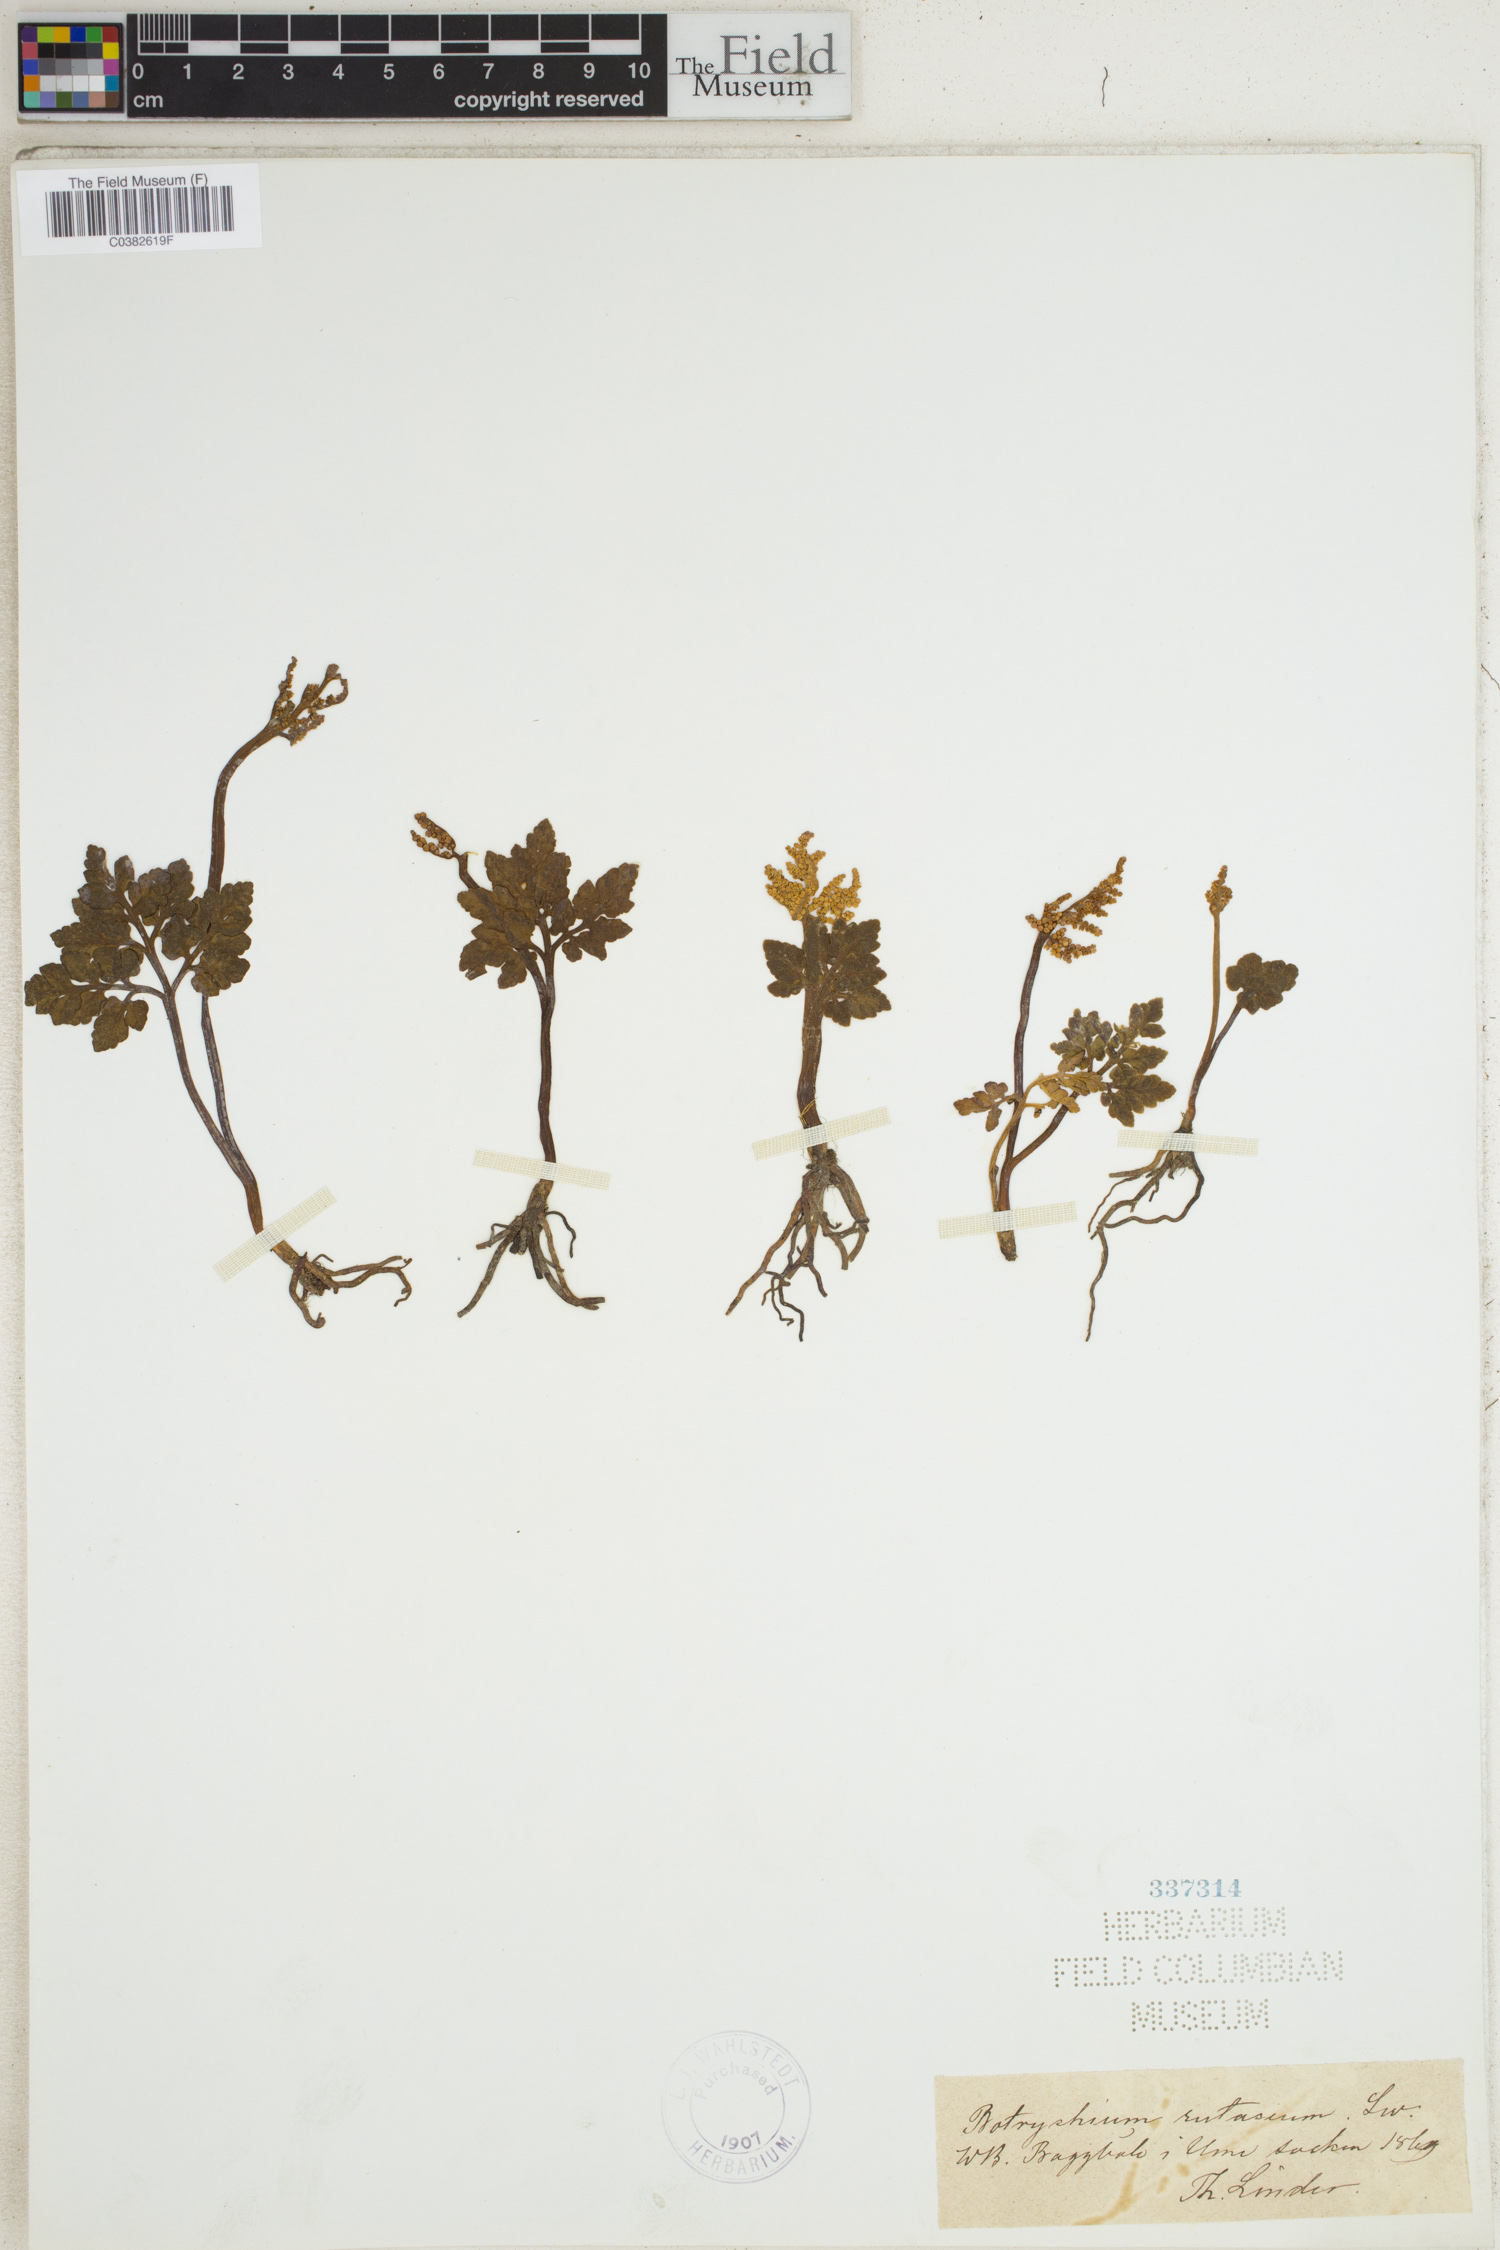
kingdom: Plantae
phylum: Tracheophyta
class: Polypodiopsida
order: Ophioglossales
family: Ophioglossaceae
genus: Botrychium
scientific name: Botrychium matricariifolium
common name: Branched moonwort
